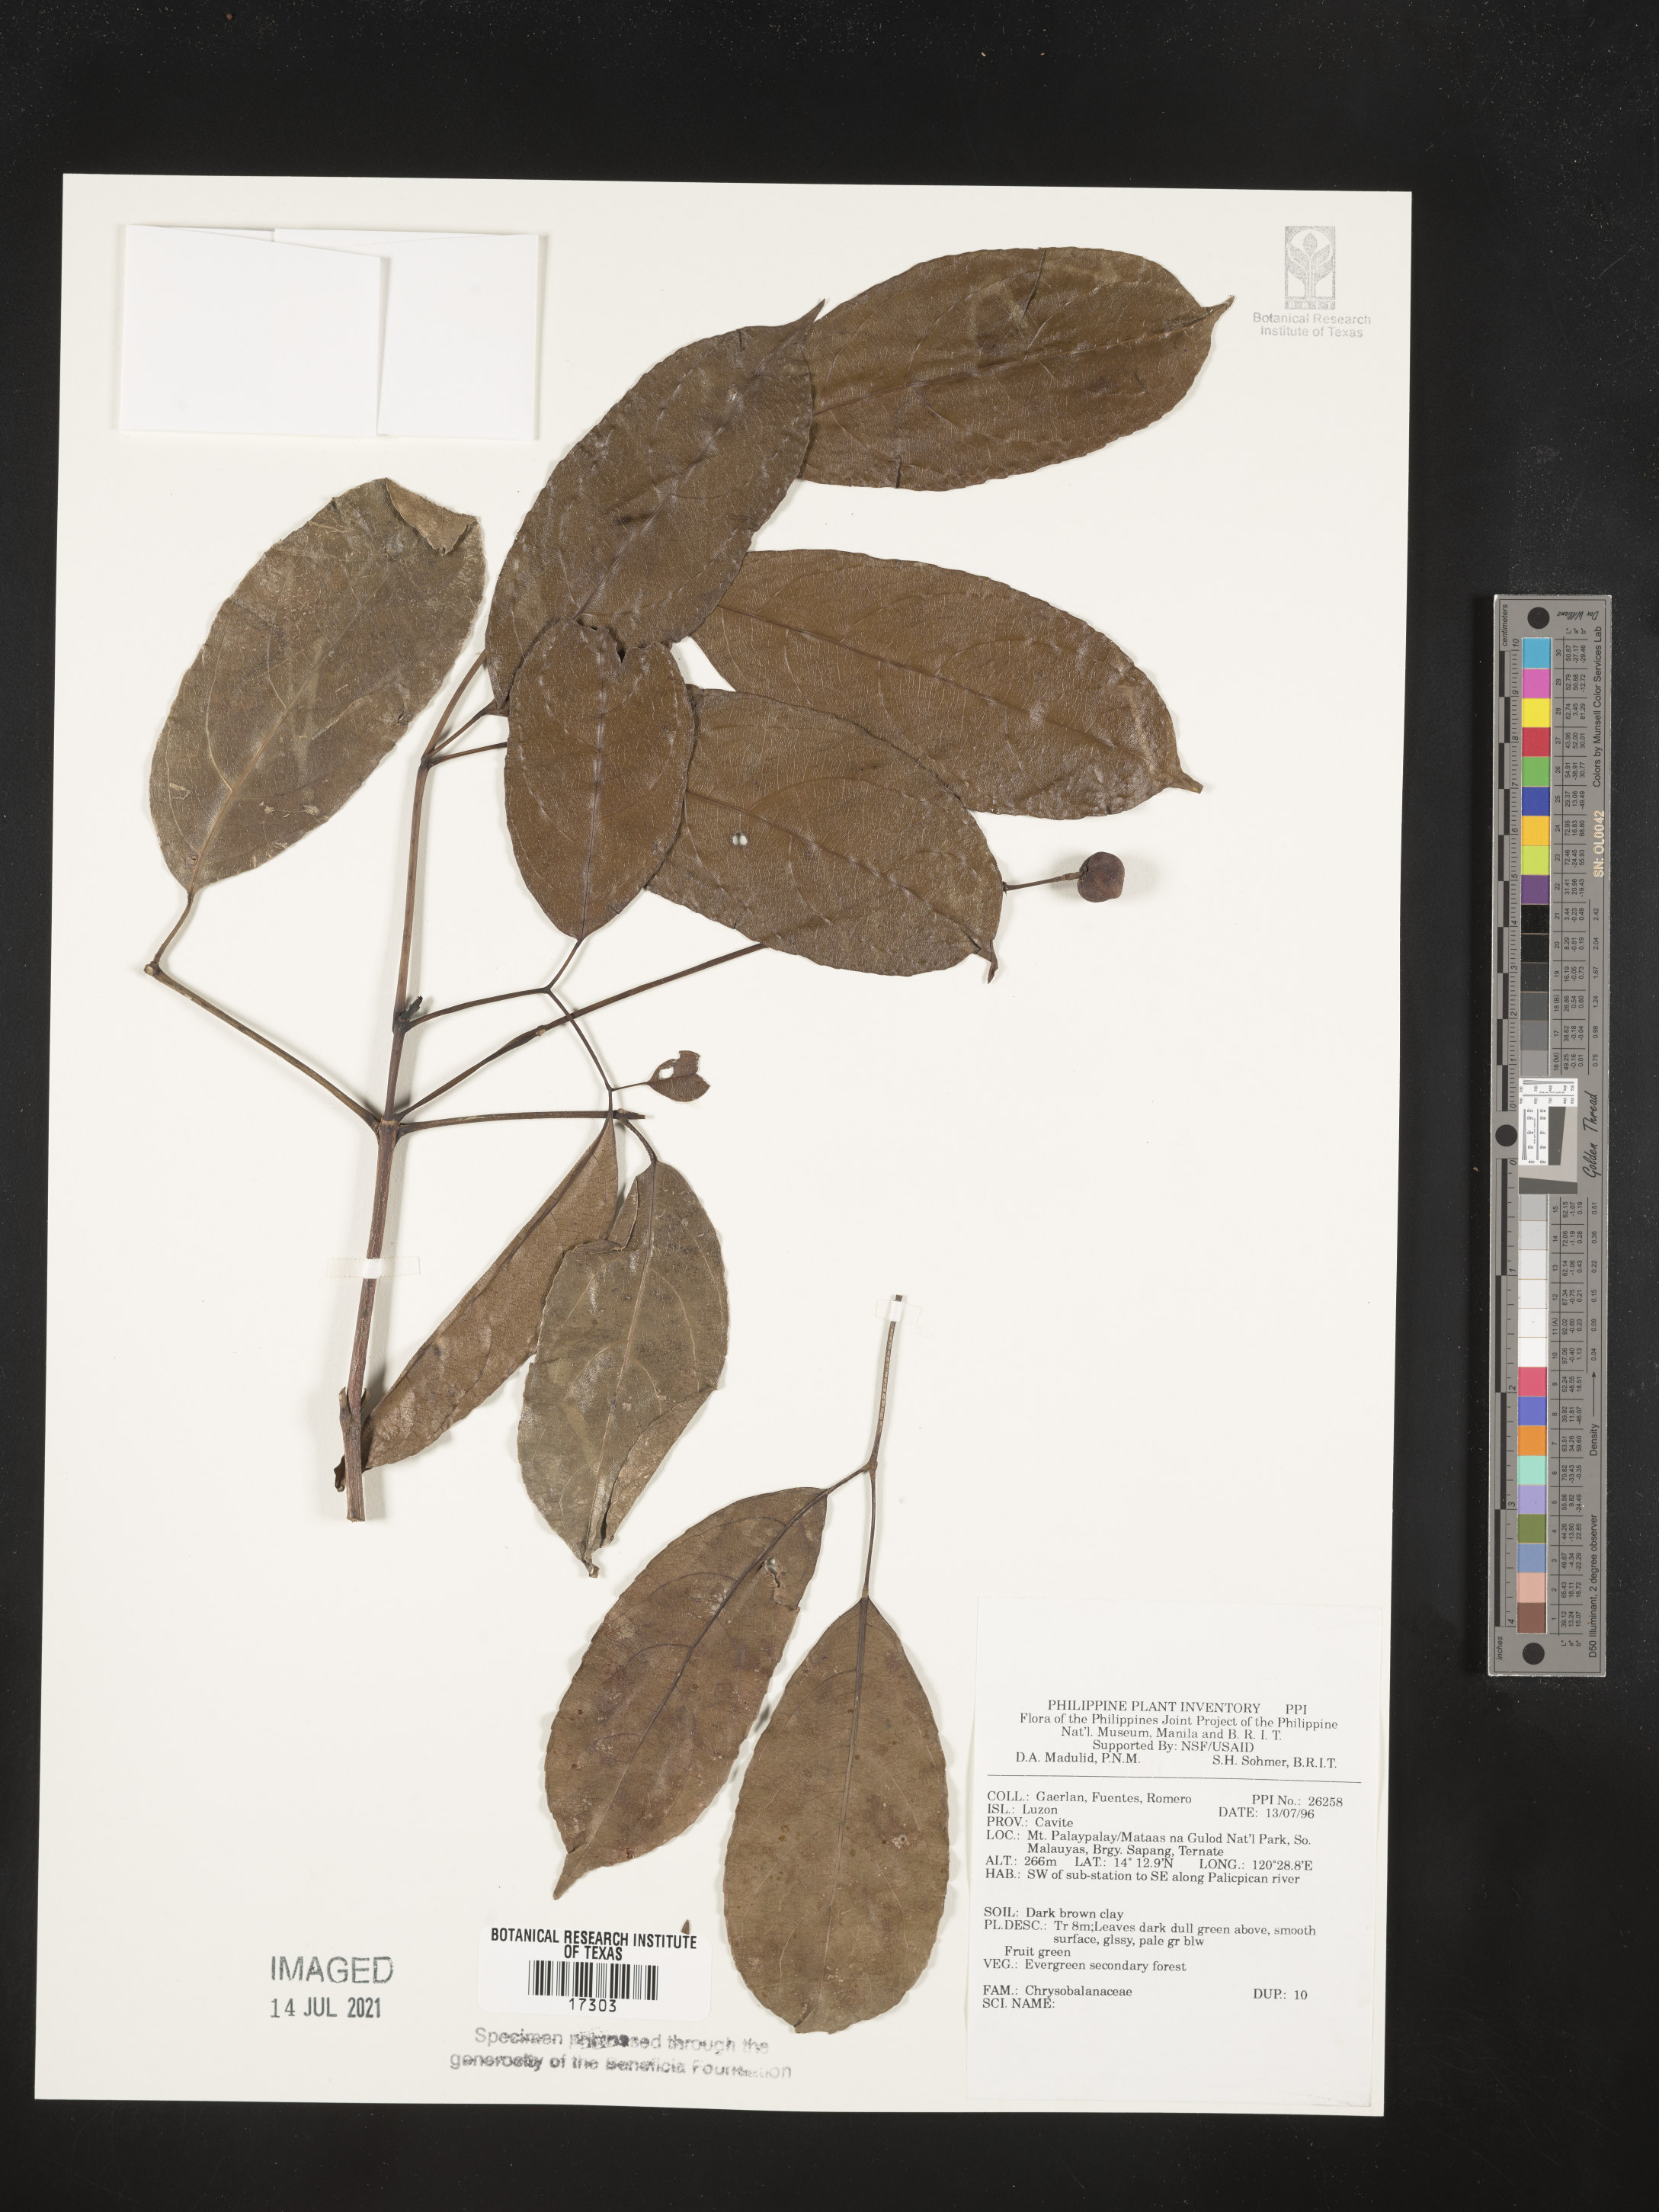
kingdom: Plantae
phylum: Tracheophyta
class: Magnoliopsida
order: Malpighiales
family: Chrysobalanaceae
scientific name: Chrysobalanaceae
